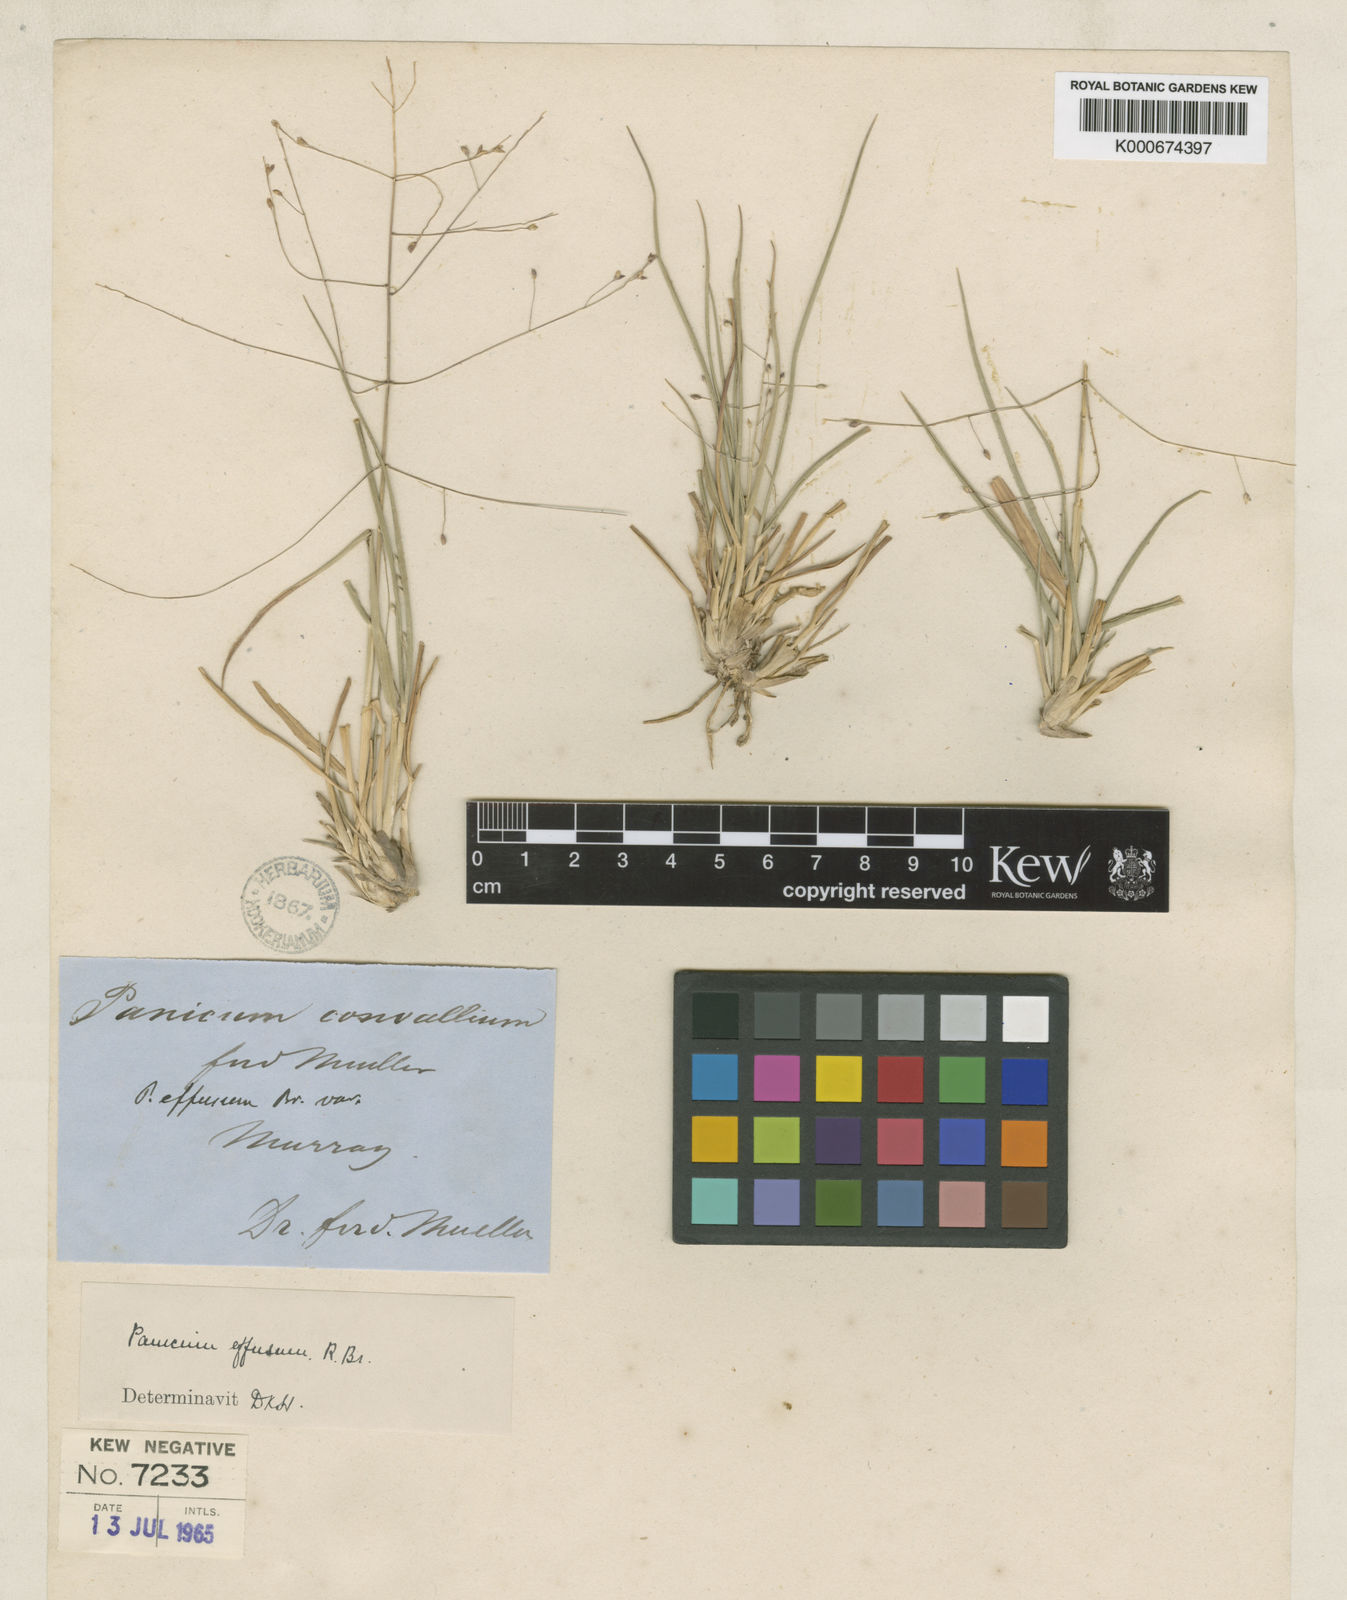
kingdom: Plantae
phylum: Tracheophyta
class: Liliopsida
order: Poales
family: Poaceae
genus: Panicum
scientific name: Panicum effusum
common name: Hairy panic grass
